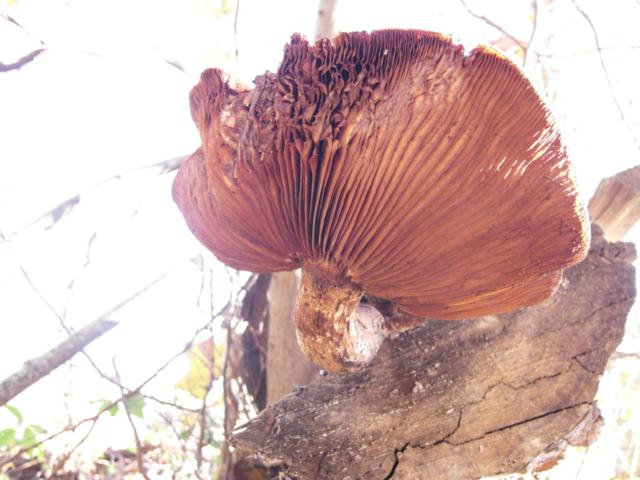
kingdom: Fungi
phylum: Basidiomycota
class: Agaricomycetes
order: Agaricales
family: Strophariaceae
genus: Pholiota
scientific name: Pholiota populnea
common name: poppel-kæmpeskælhat
